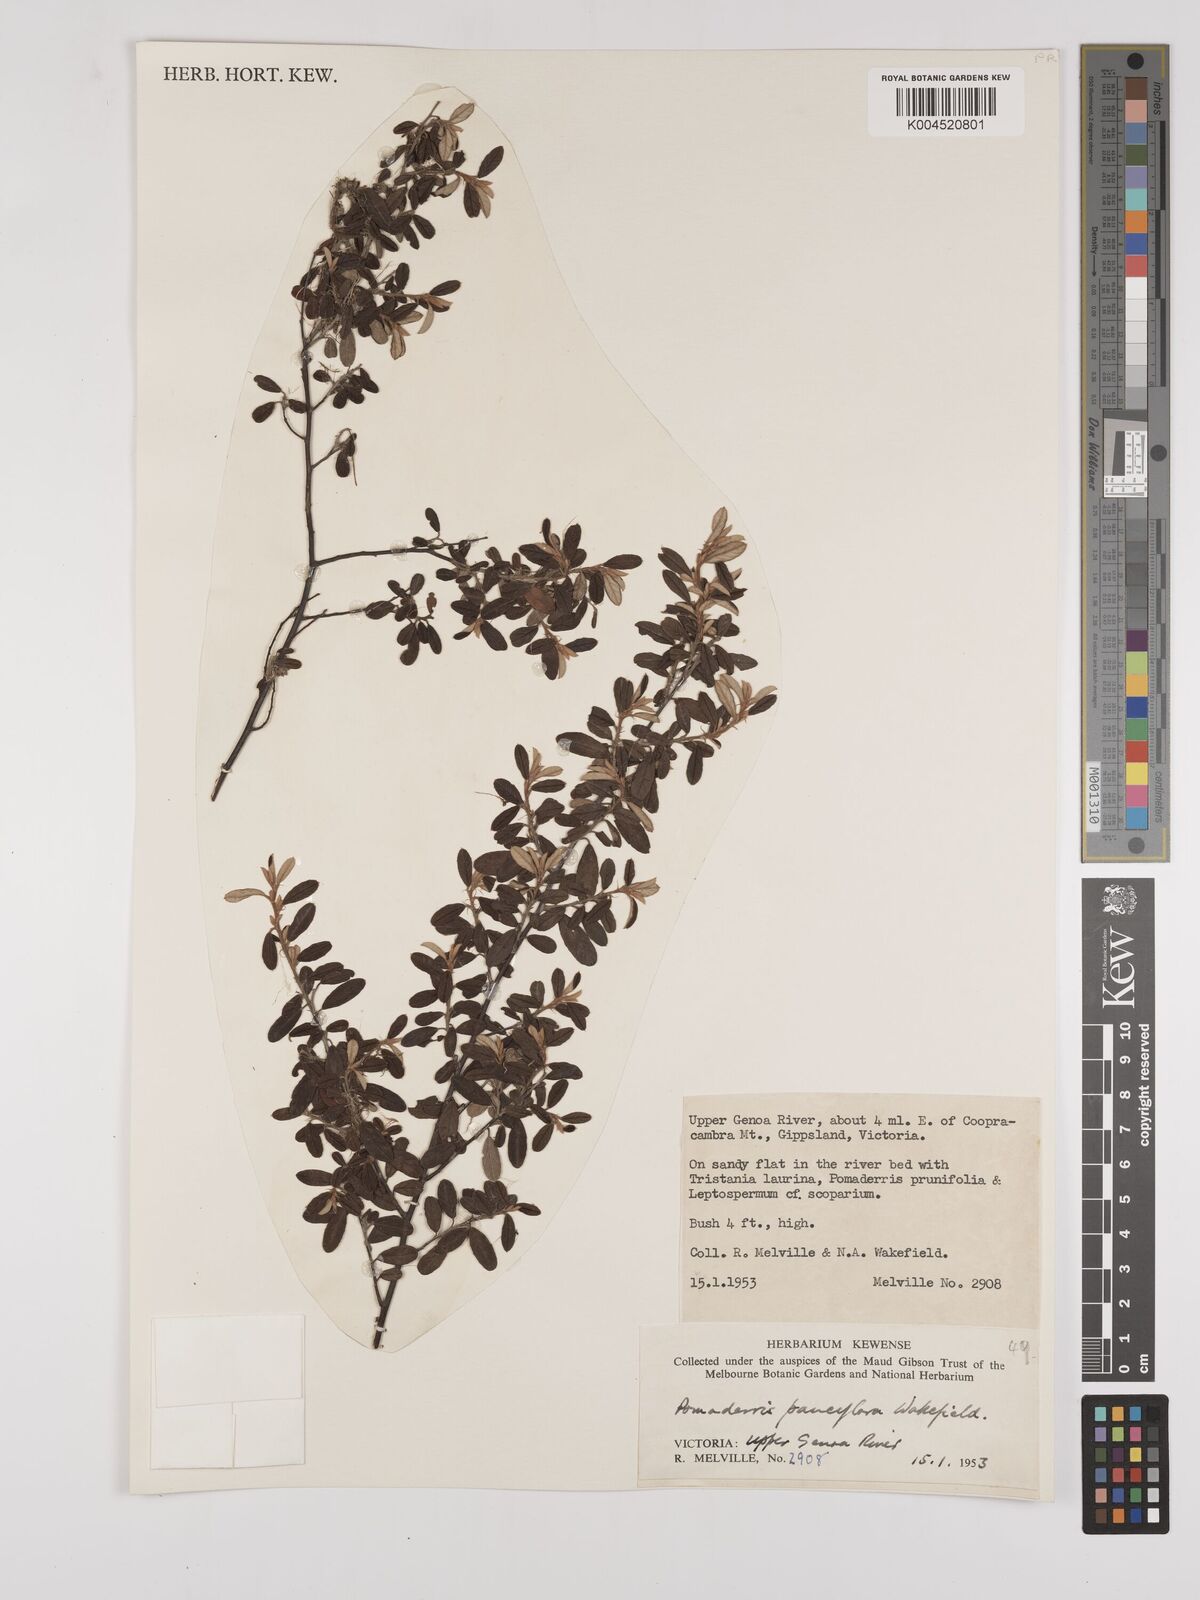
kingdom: Plantae
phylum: Tracheophyta
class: Magnoliopsida
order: Rosales
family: Rhamnaceae
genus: Pomaderris
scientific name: Pomaderris pauciflora
